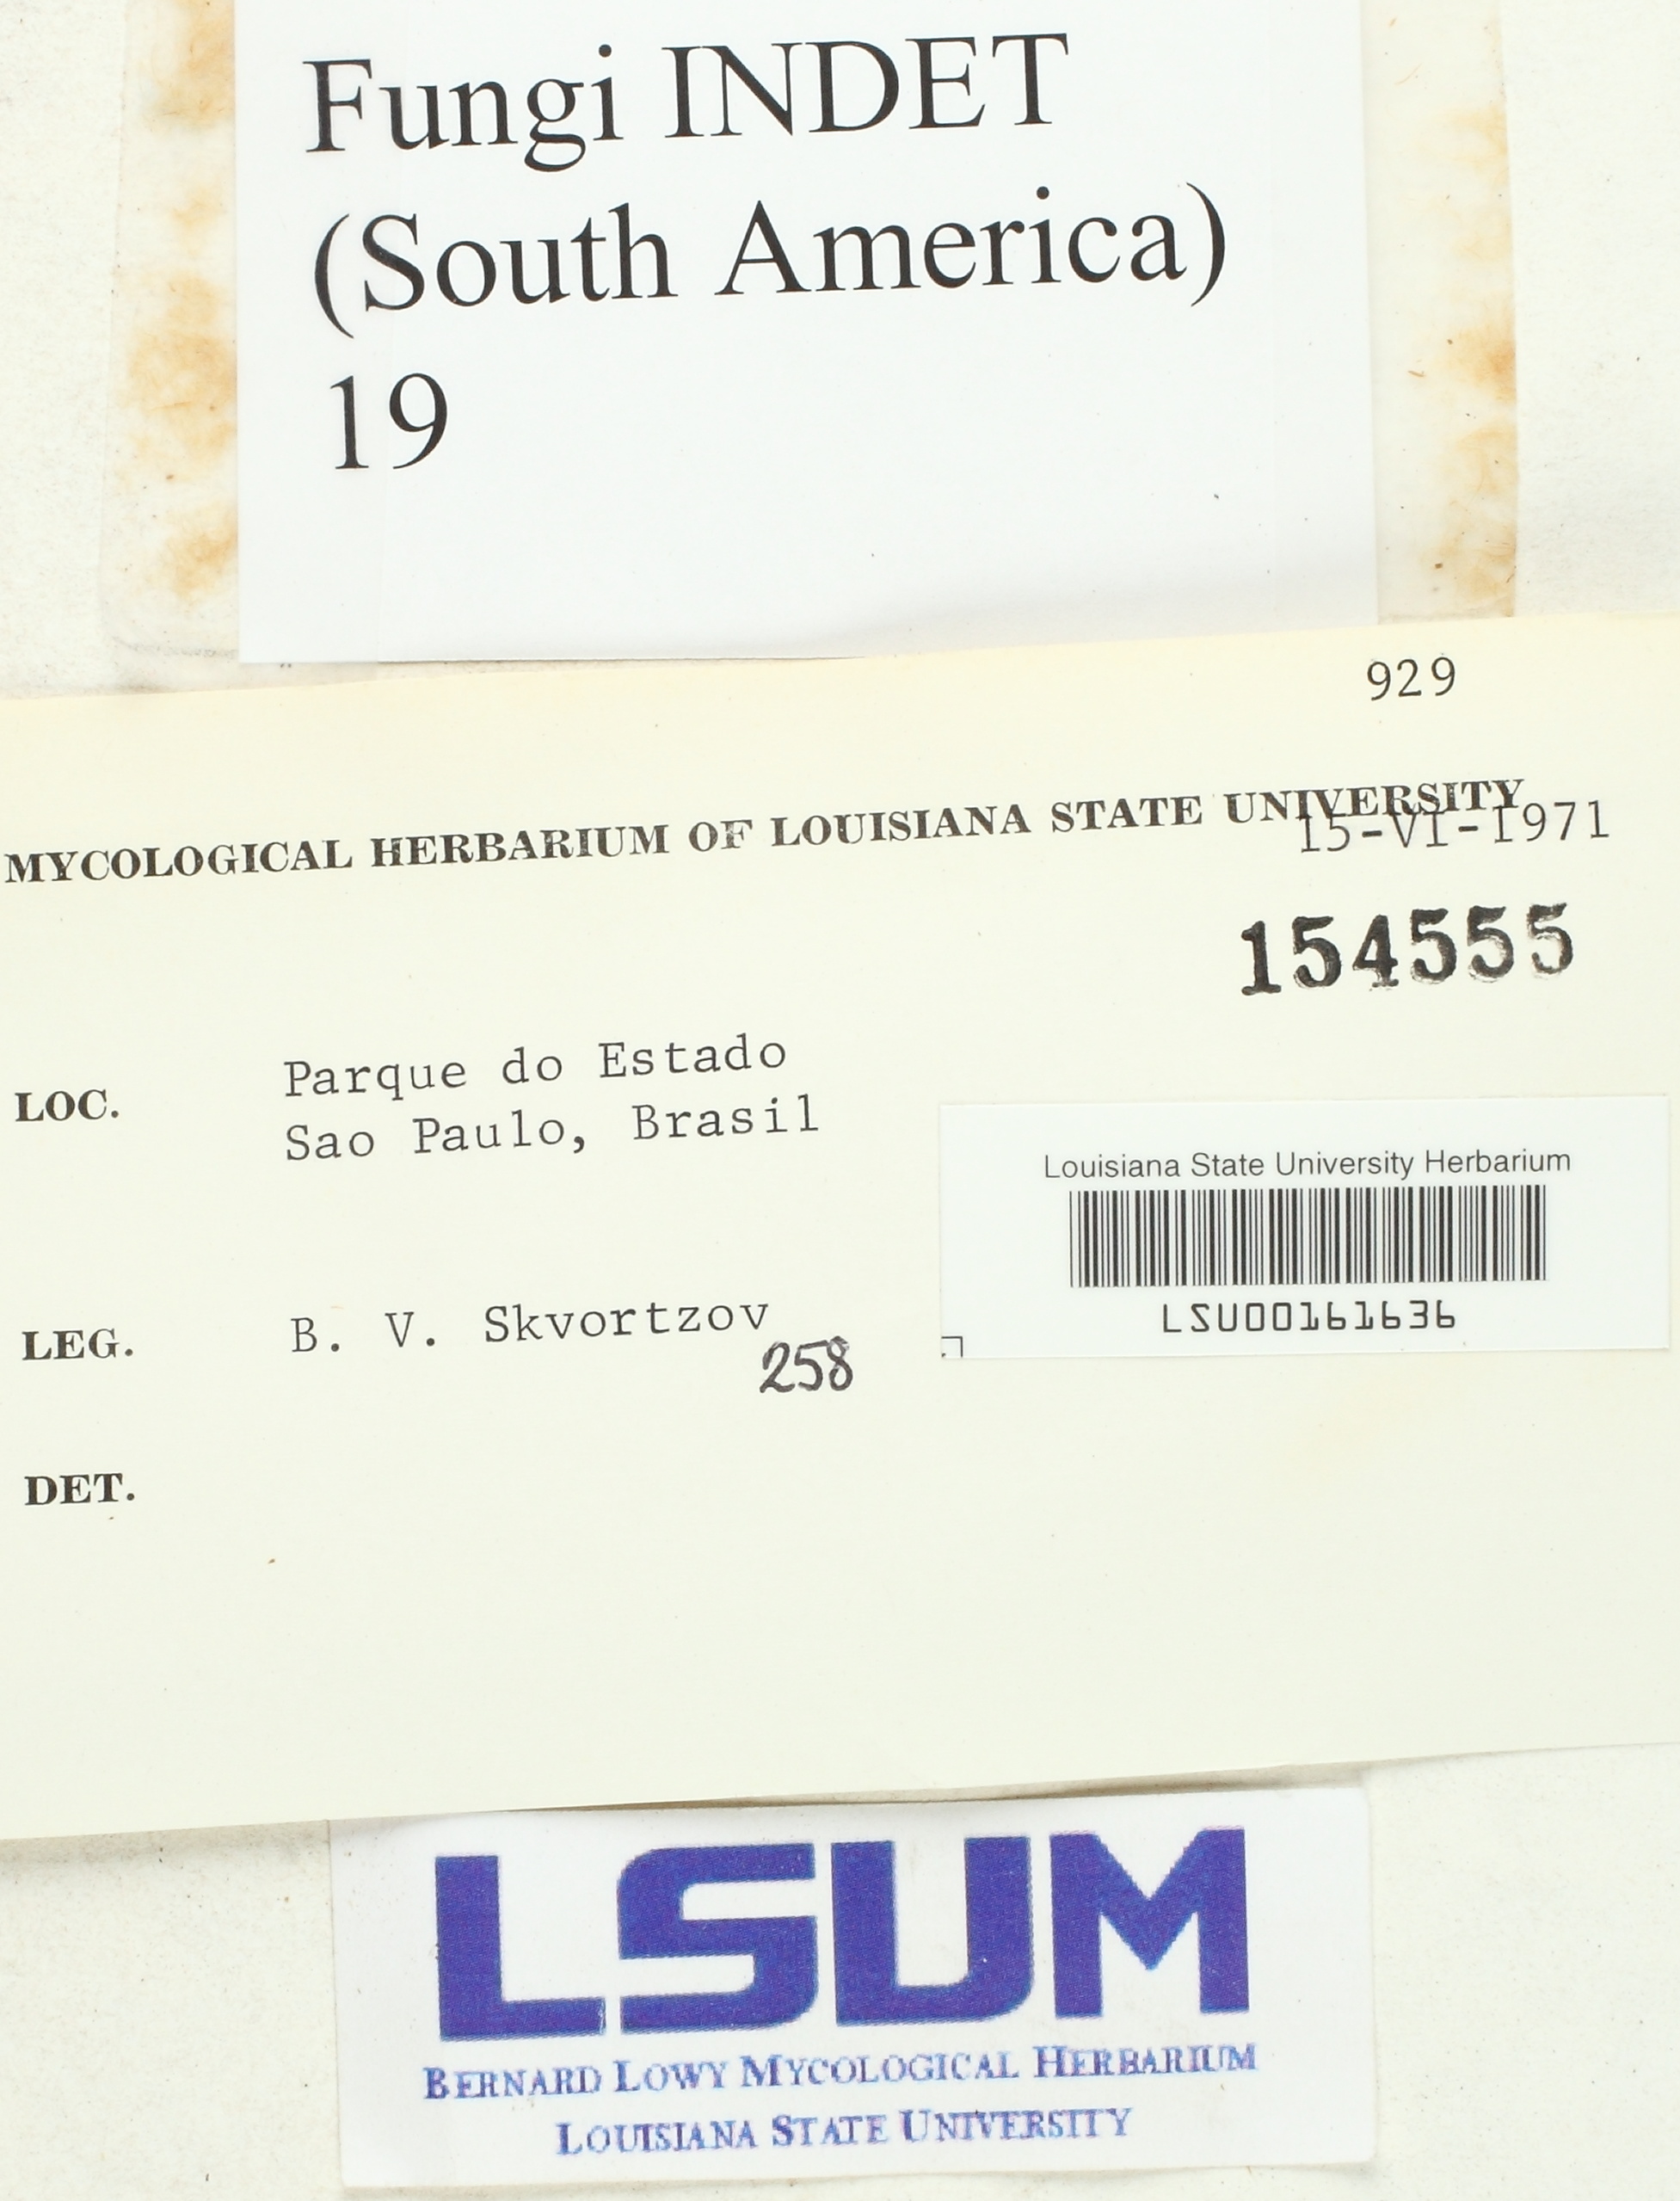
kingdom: Fungi
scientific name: Fungi
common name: Fungi
